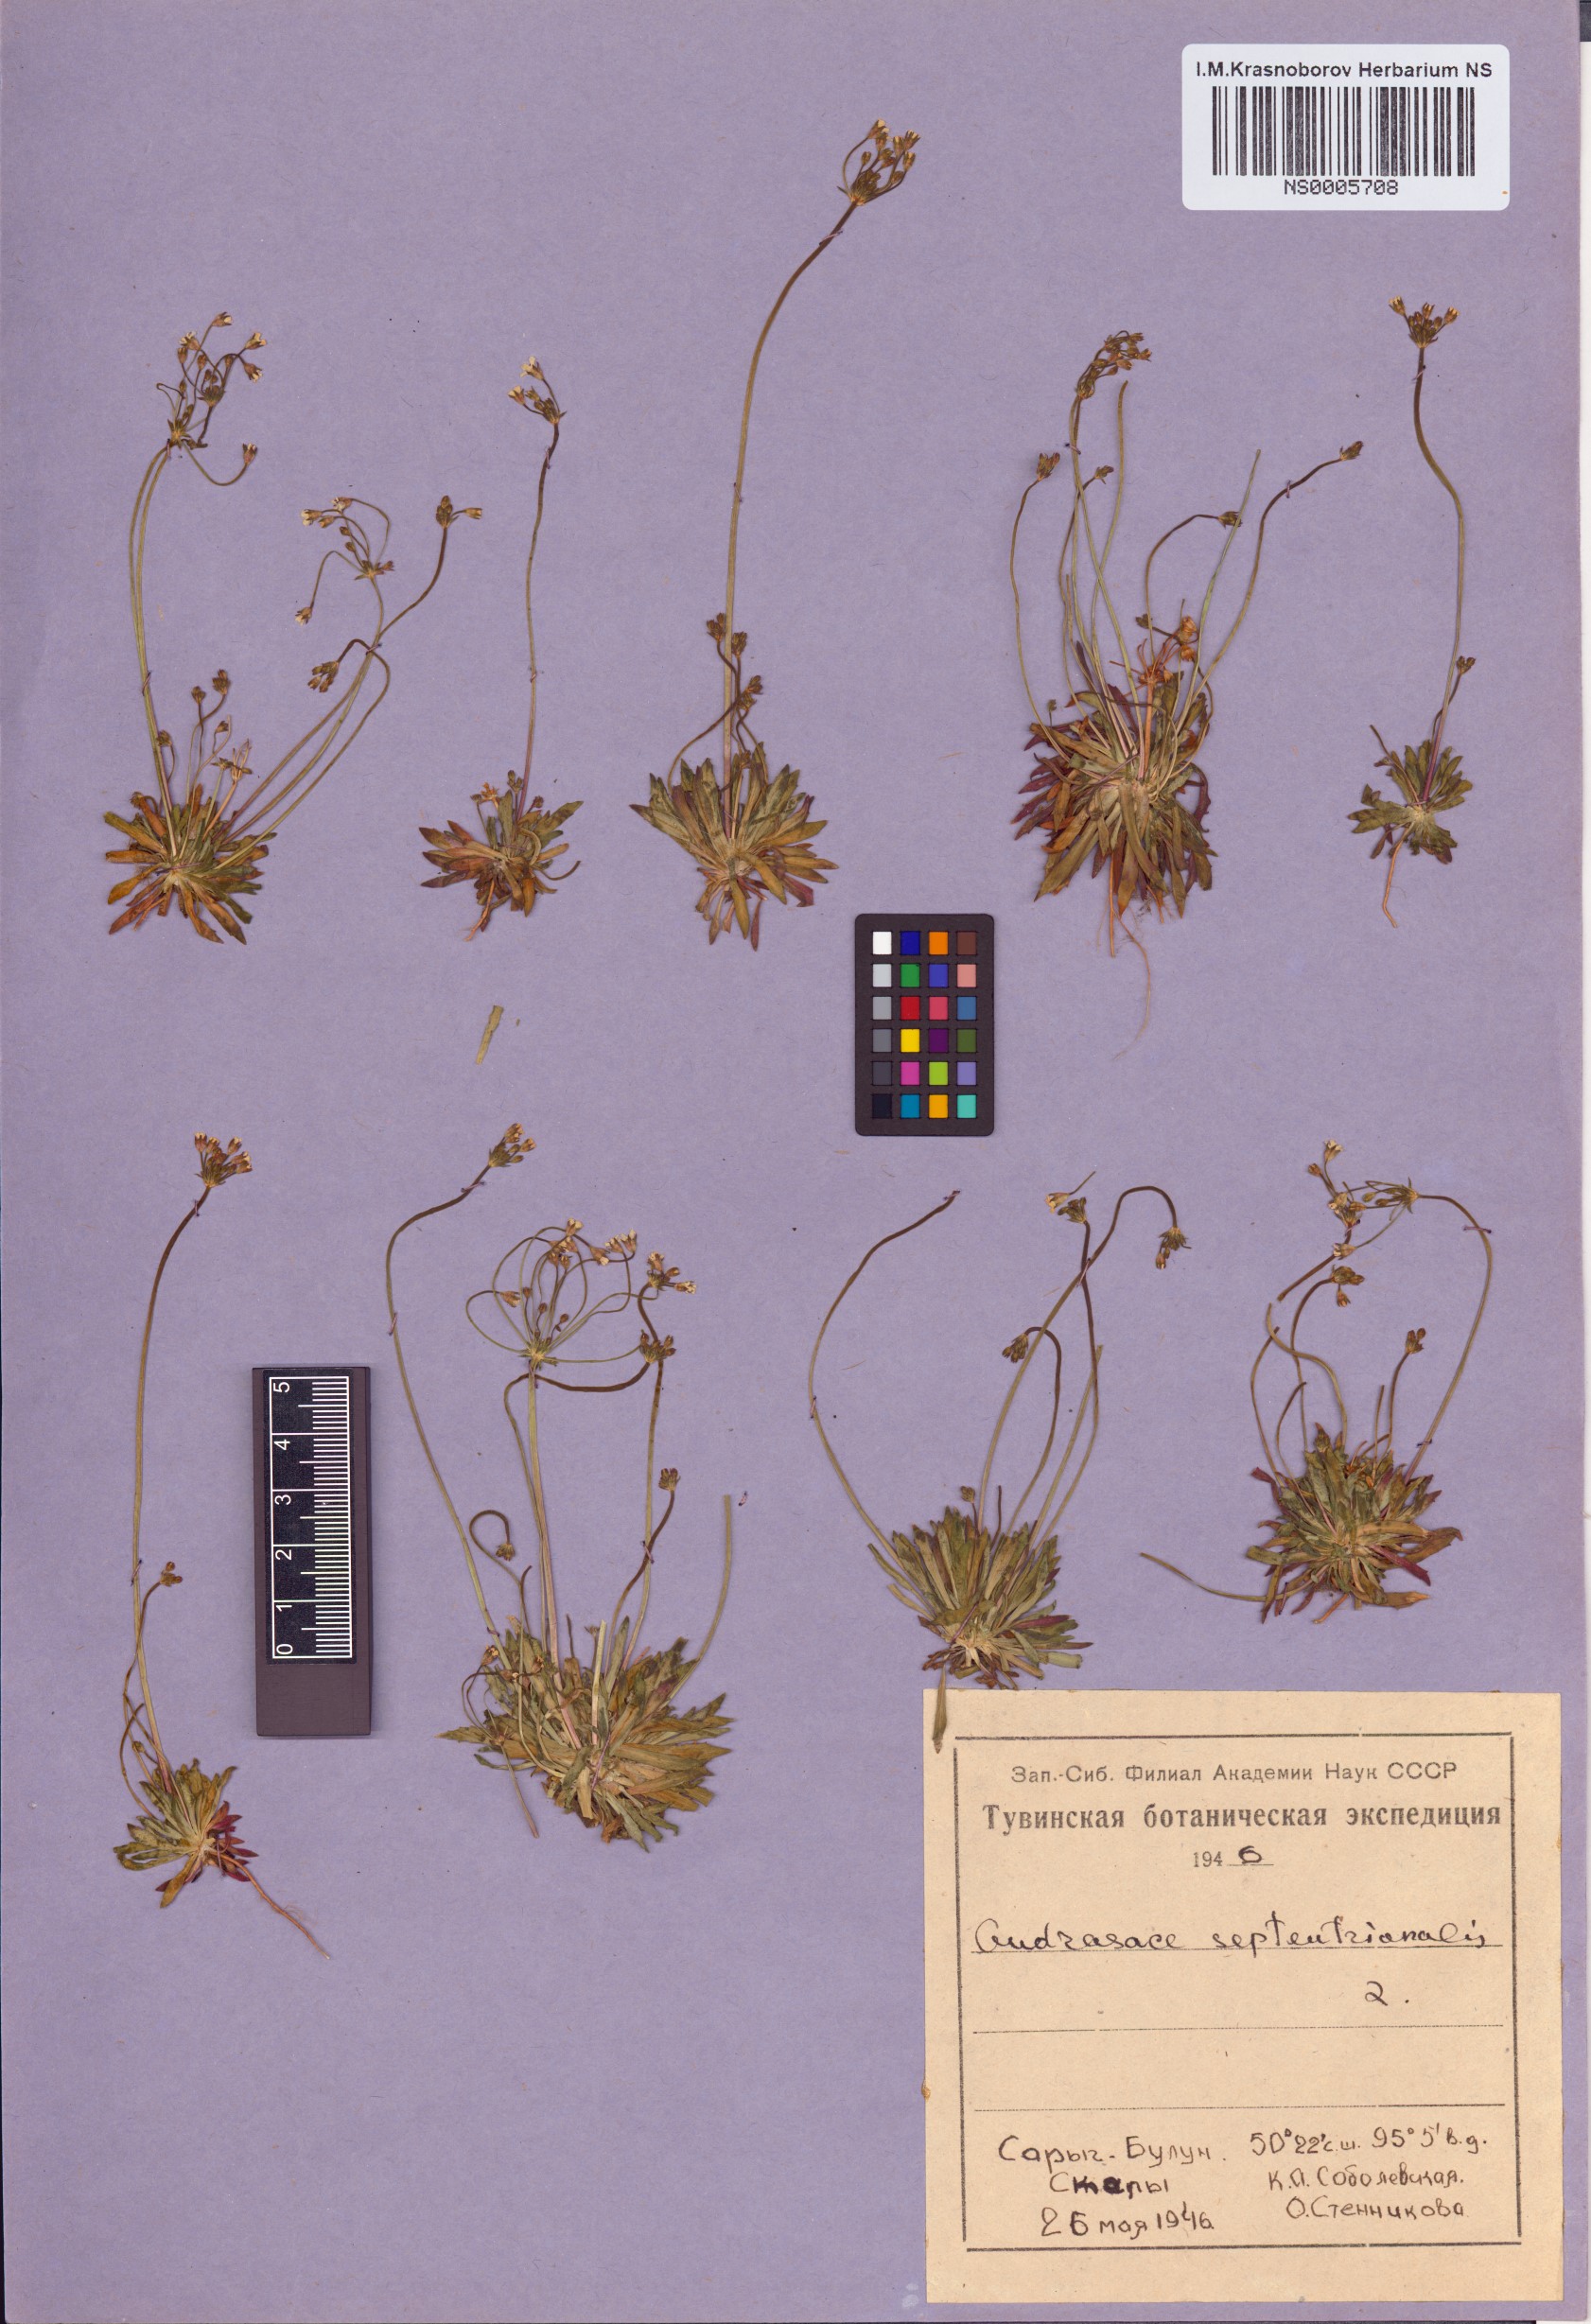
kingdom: Plantae
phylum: Tracheophyta
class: Magnoliopsida
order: Ericales
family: Primulaceae
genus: Androsace
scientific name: Androsace septentrionalis
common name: Hairy northern fairy-candelabra
